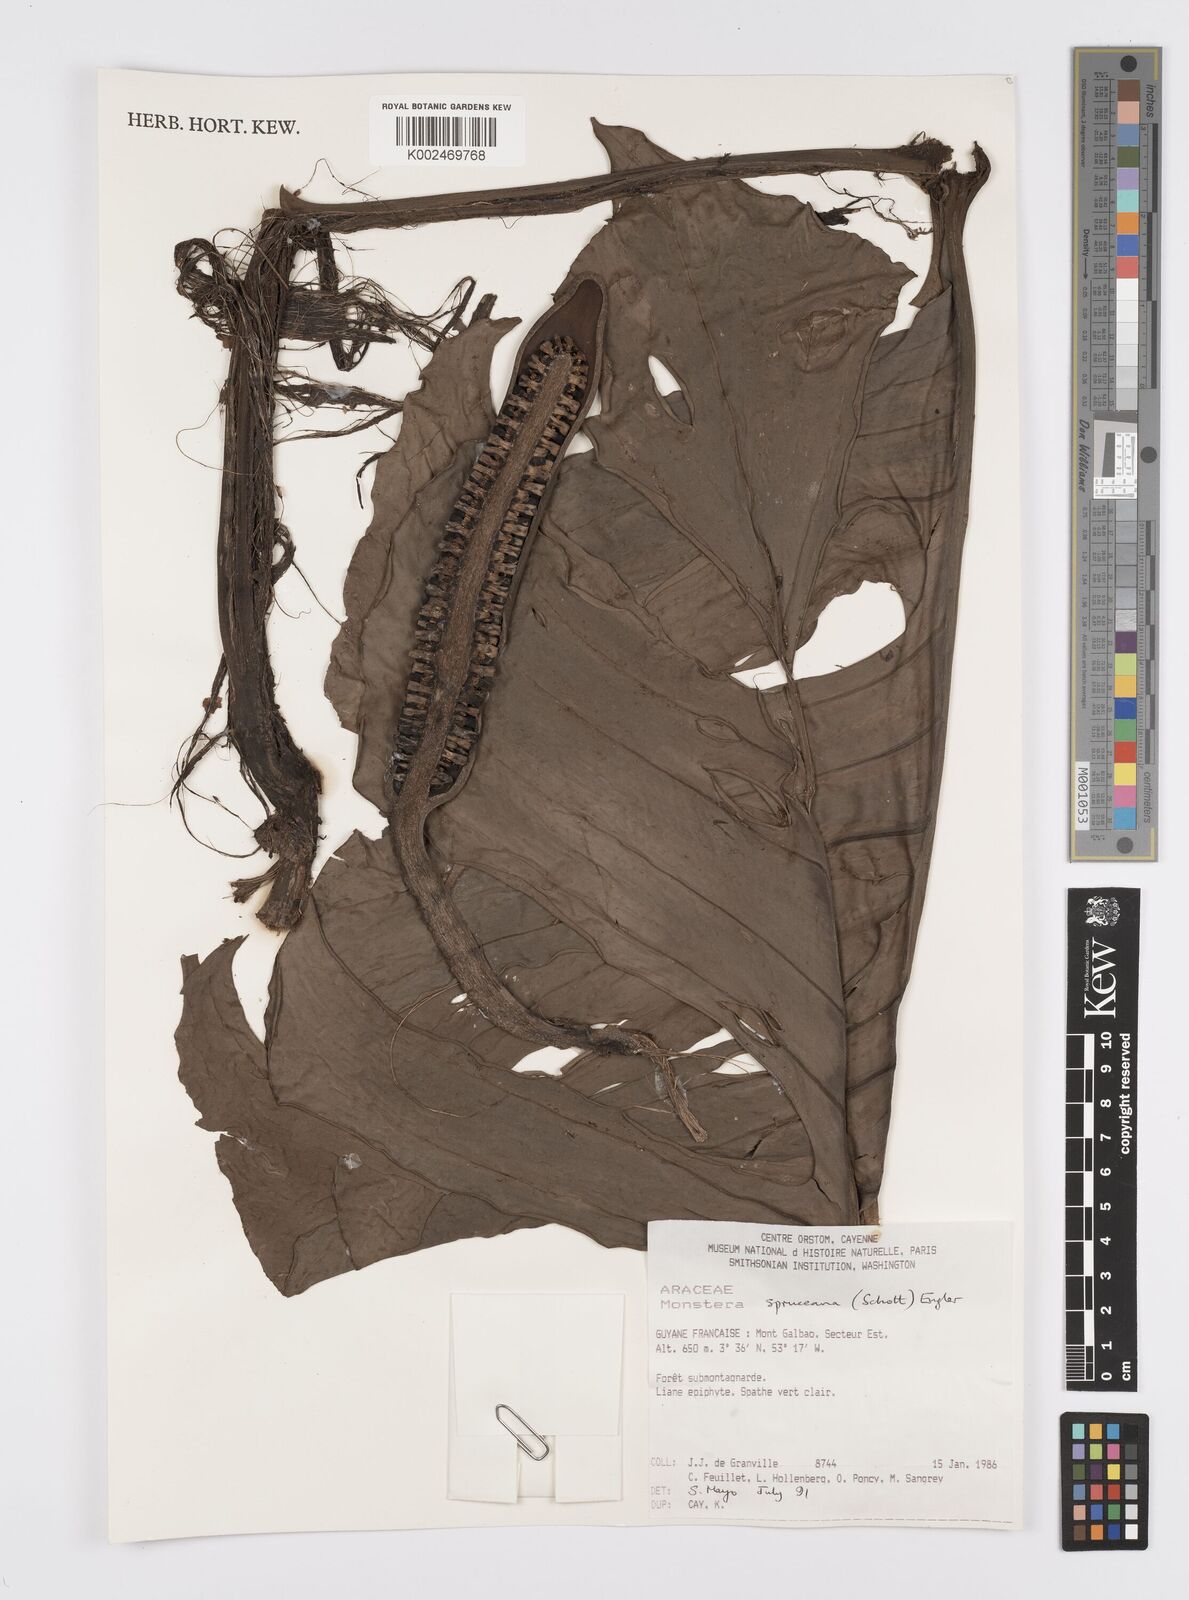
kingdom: Plantae
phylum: Tracheophyta
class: Liliopsida
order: Alismatales
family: Araceae
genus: Monstera
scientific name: Monstera spruceana
